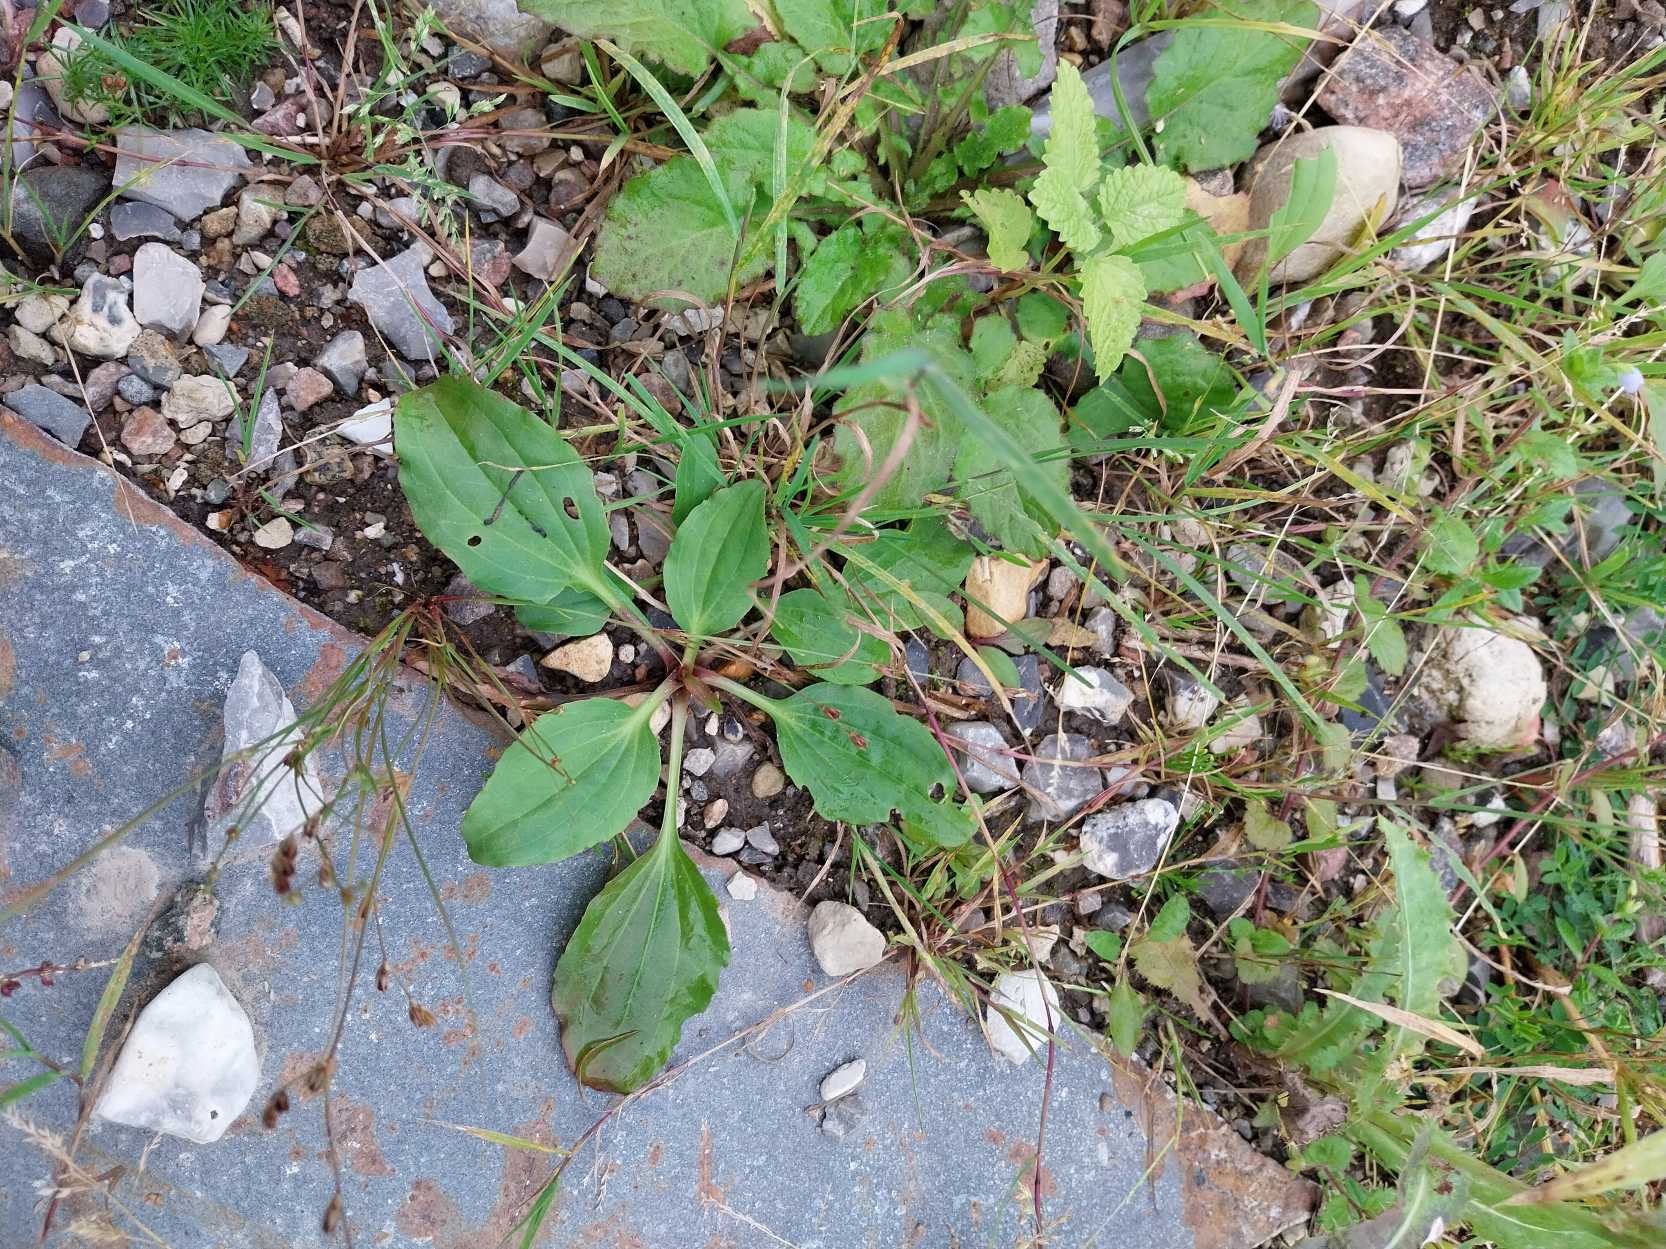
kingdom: Plantae
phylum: Tracheophyta
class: Magnoliopsida
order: Lamiales
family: Plantaginaceae
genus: Plantago
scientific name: Plantago major
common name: Glat vejbred
